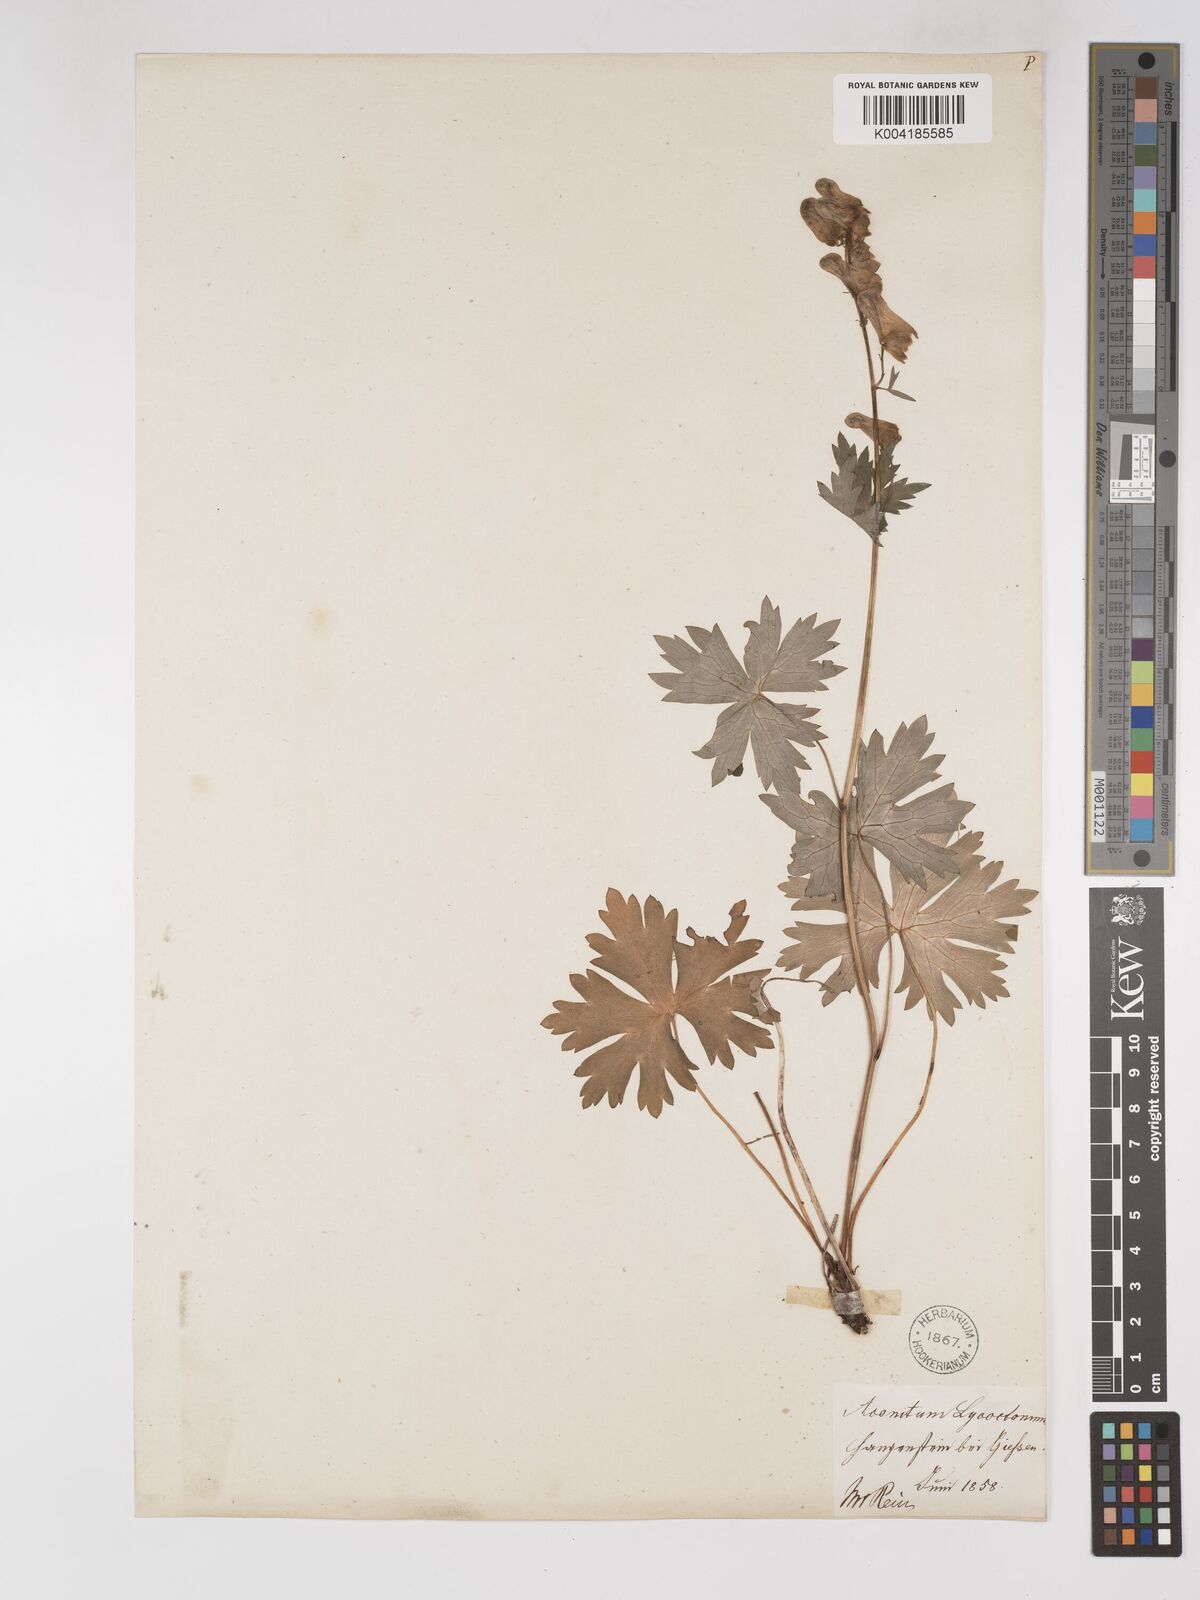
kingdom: Plantae
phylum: Tracheophyta
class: Magnoliopsida
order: Ranunculales
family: Ranunculaceae
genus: Aconitum
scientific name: Aconitum lycoctonum
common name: Wolf's-bane
